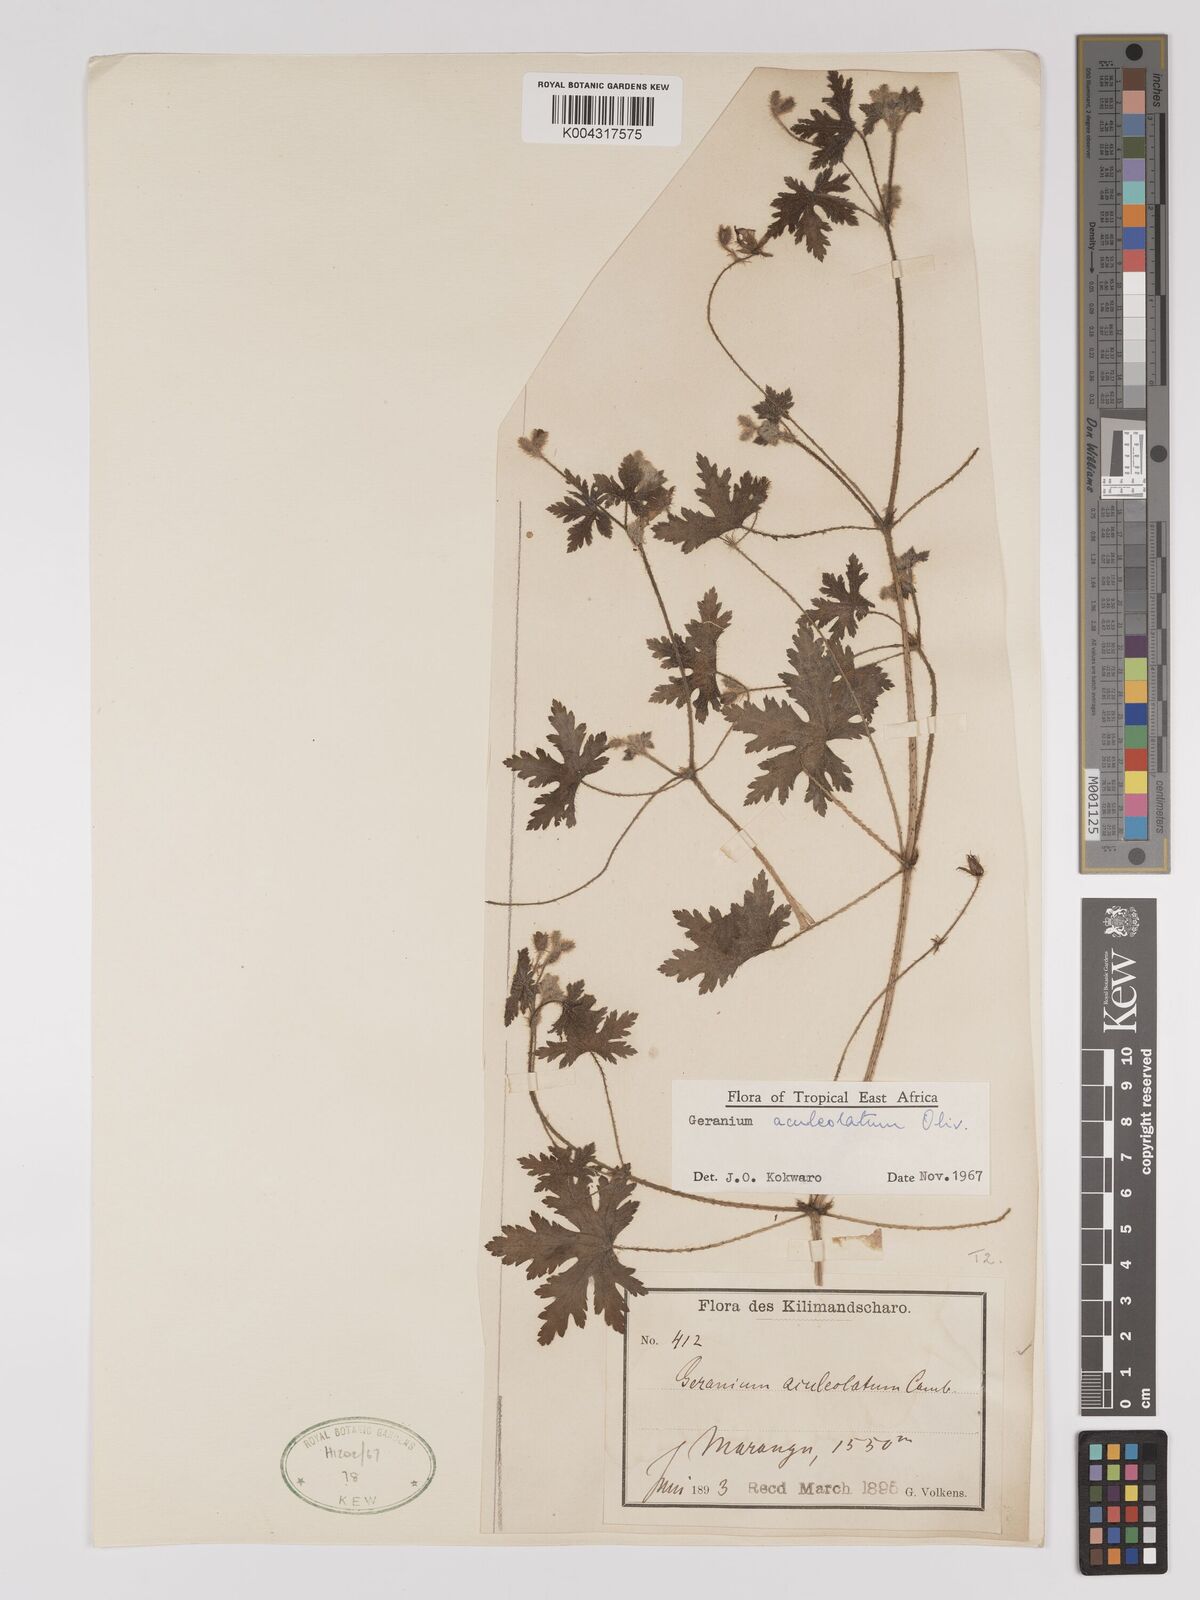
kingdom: Plantae
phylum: Tracheophyta
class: Magnoliopsida
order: Geraniales
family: Geraniaceae
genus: Geranium
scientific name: Geranium aculeolatum
